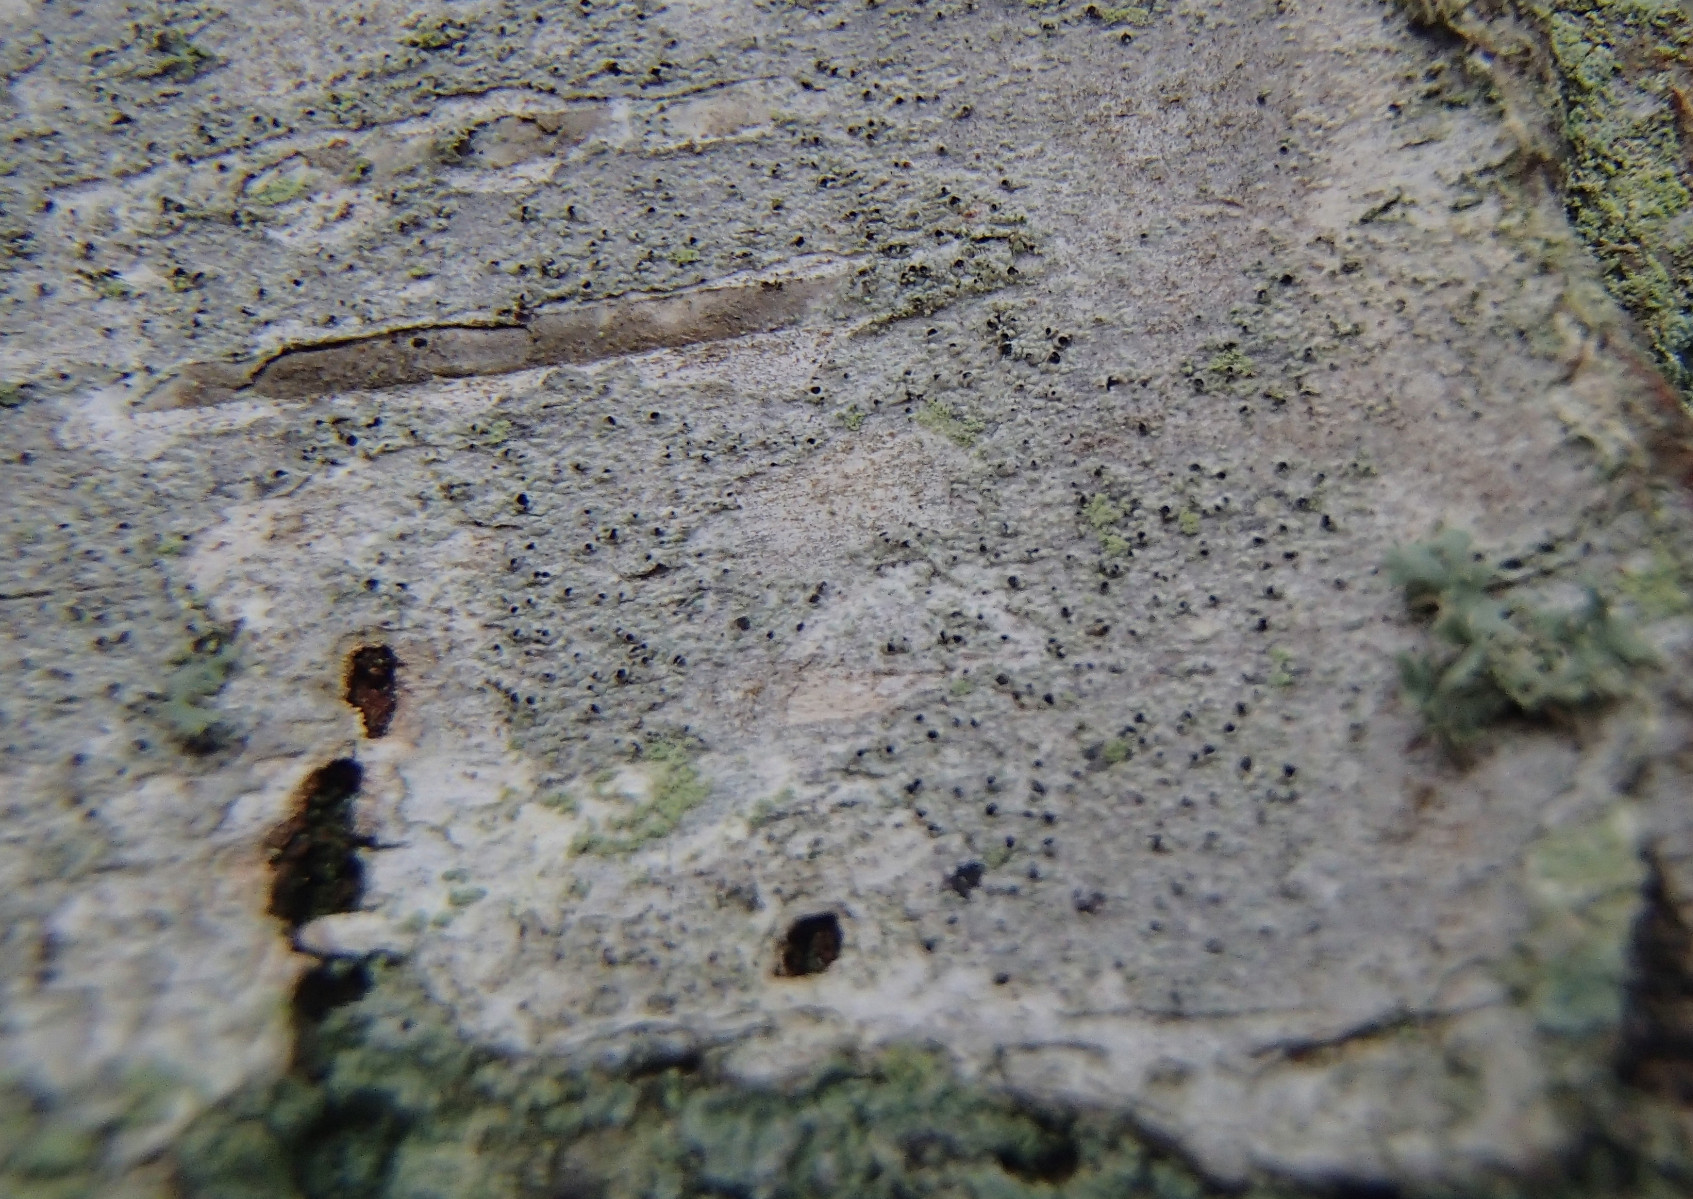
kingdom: Fungi
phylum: Ascomycota
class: Dothideomycetes
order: Pleosporales
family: Naetrocymbaceae
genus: Leptorhaphis
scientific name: Leptorhaphis epidermidis
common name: birke-barkplet
